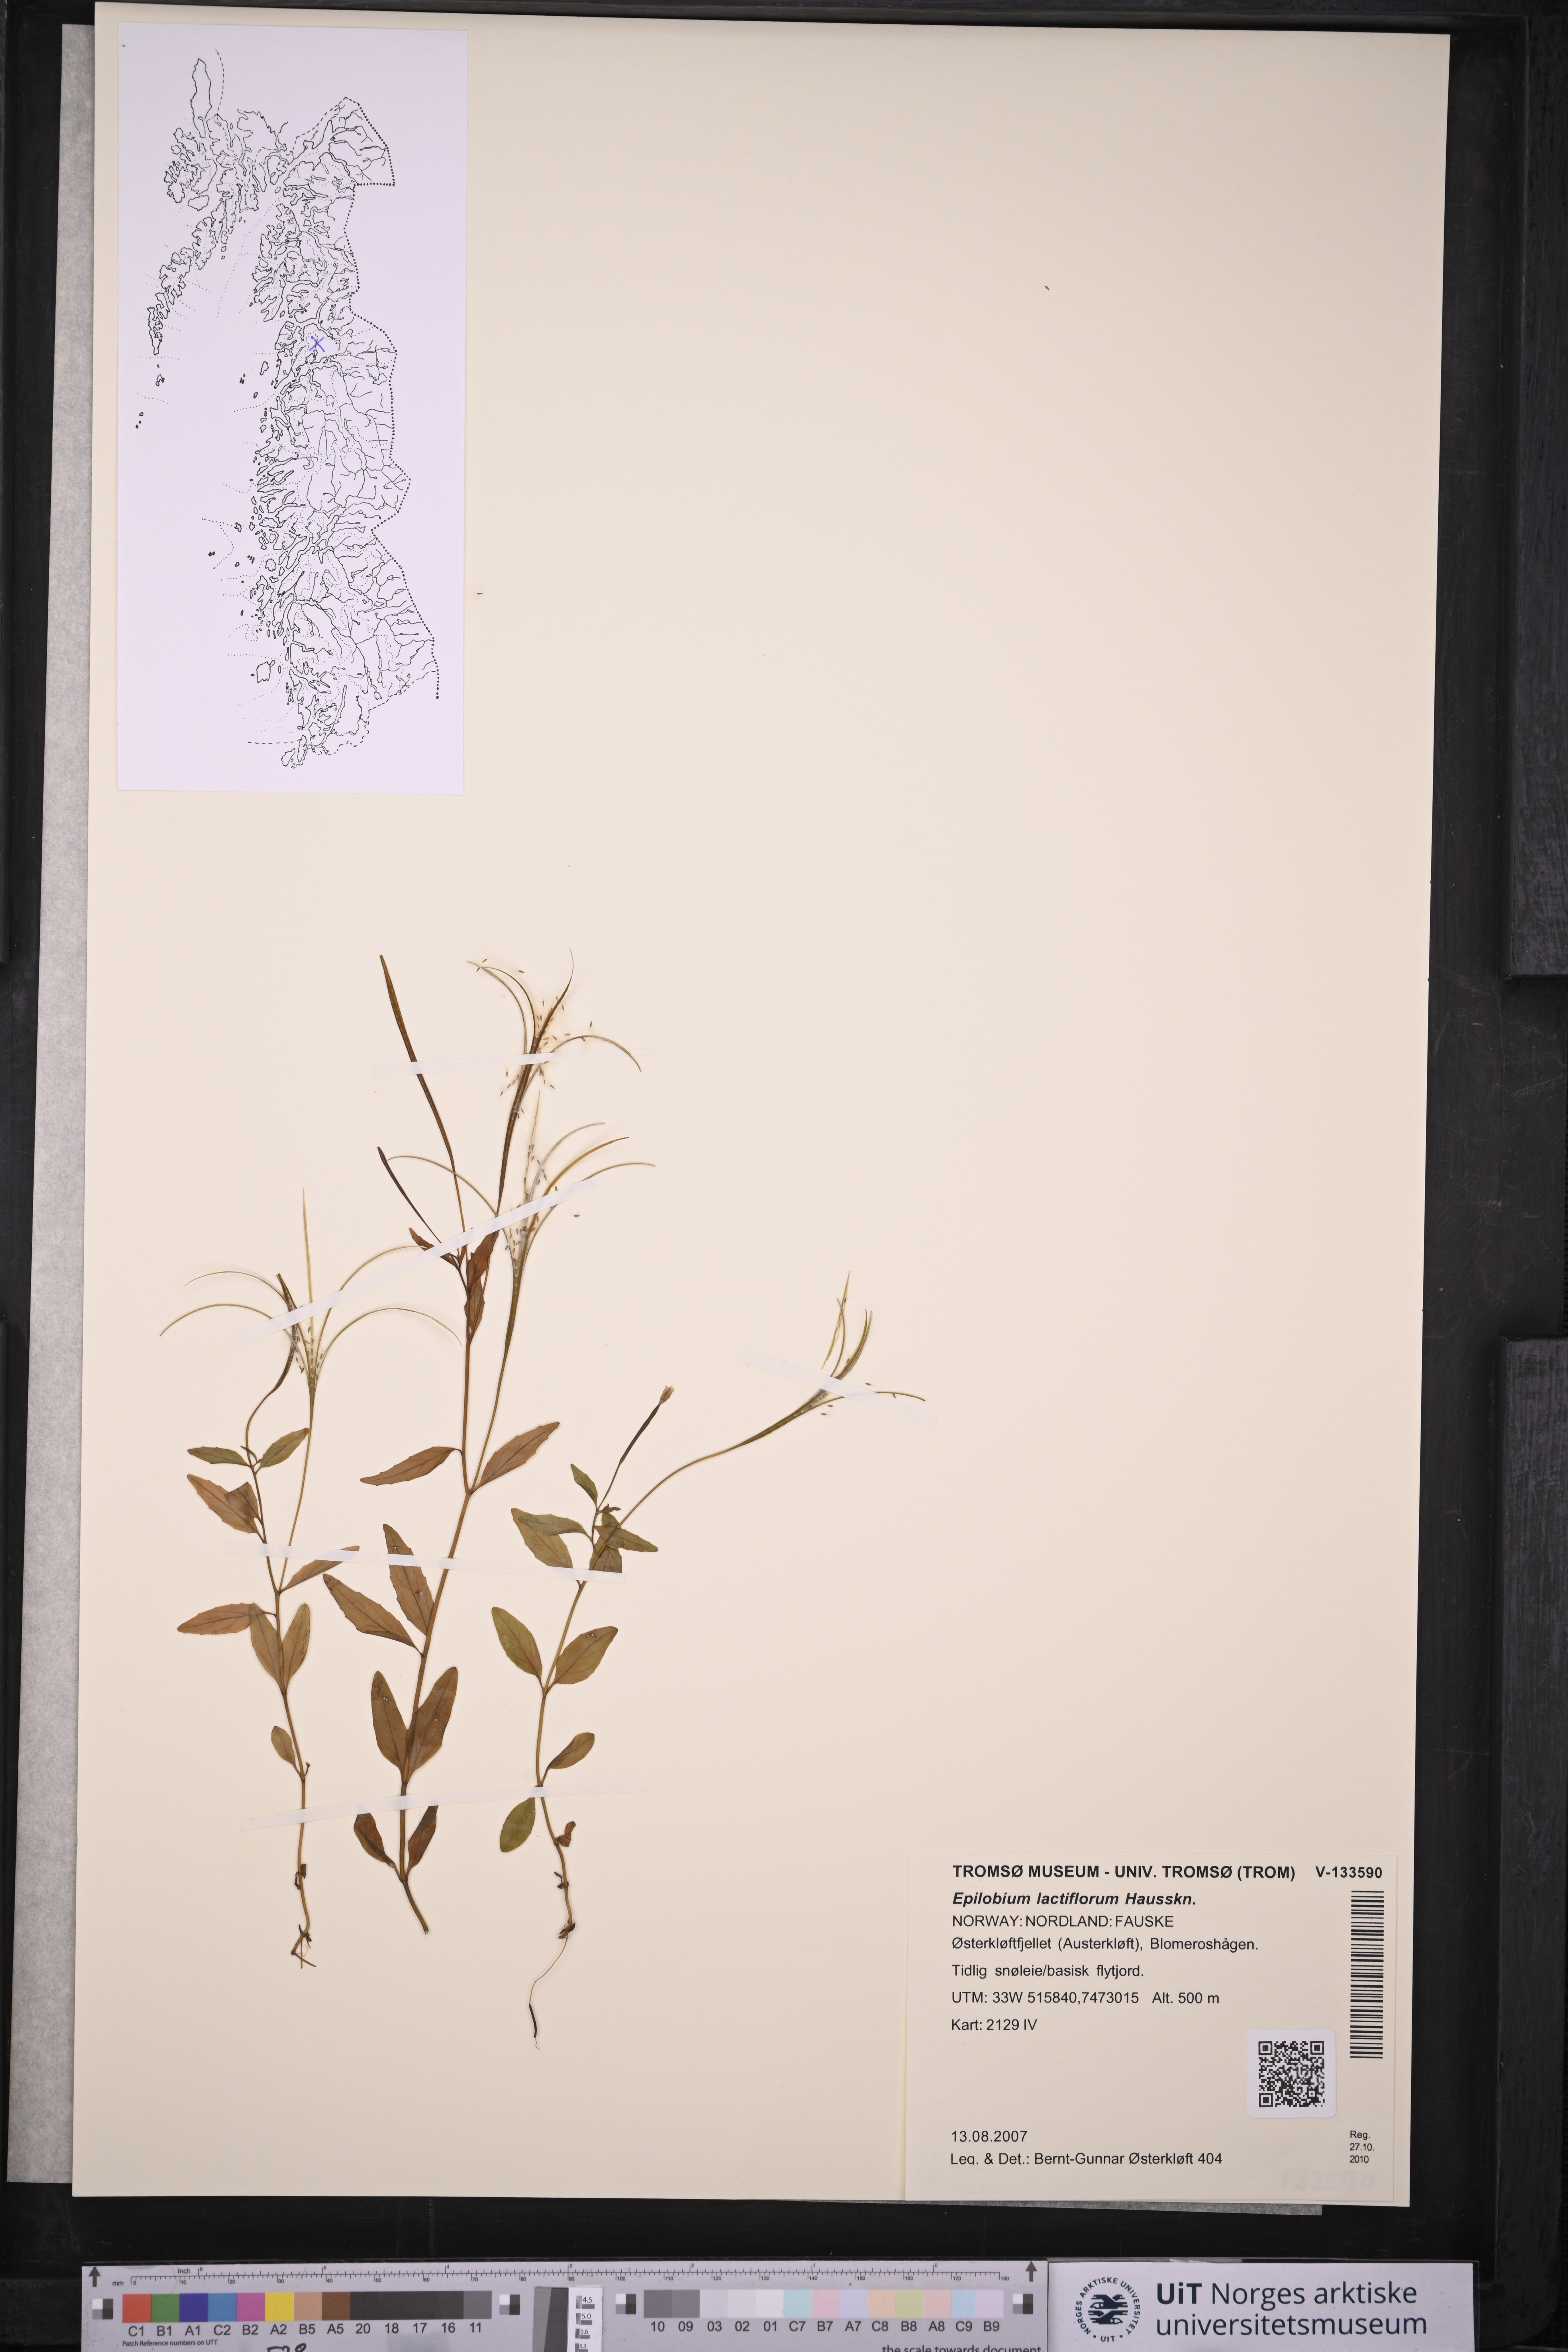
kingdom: Plantae
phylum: Tracheophyta
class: Magnoliopsida
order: Myrtales
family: Onagraceae
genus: Epilobium
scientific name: Epilobium lactiflorum
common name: Milkflower willowherb
